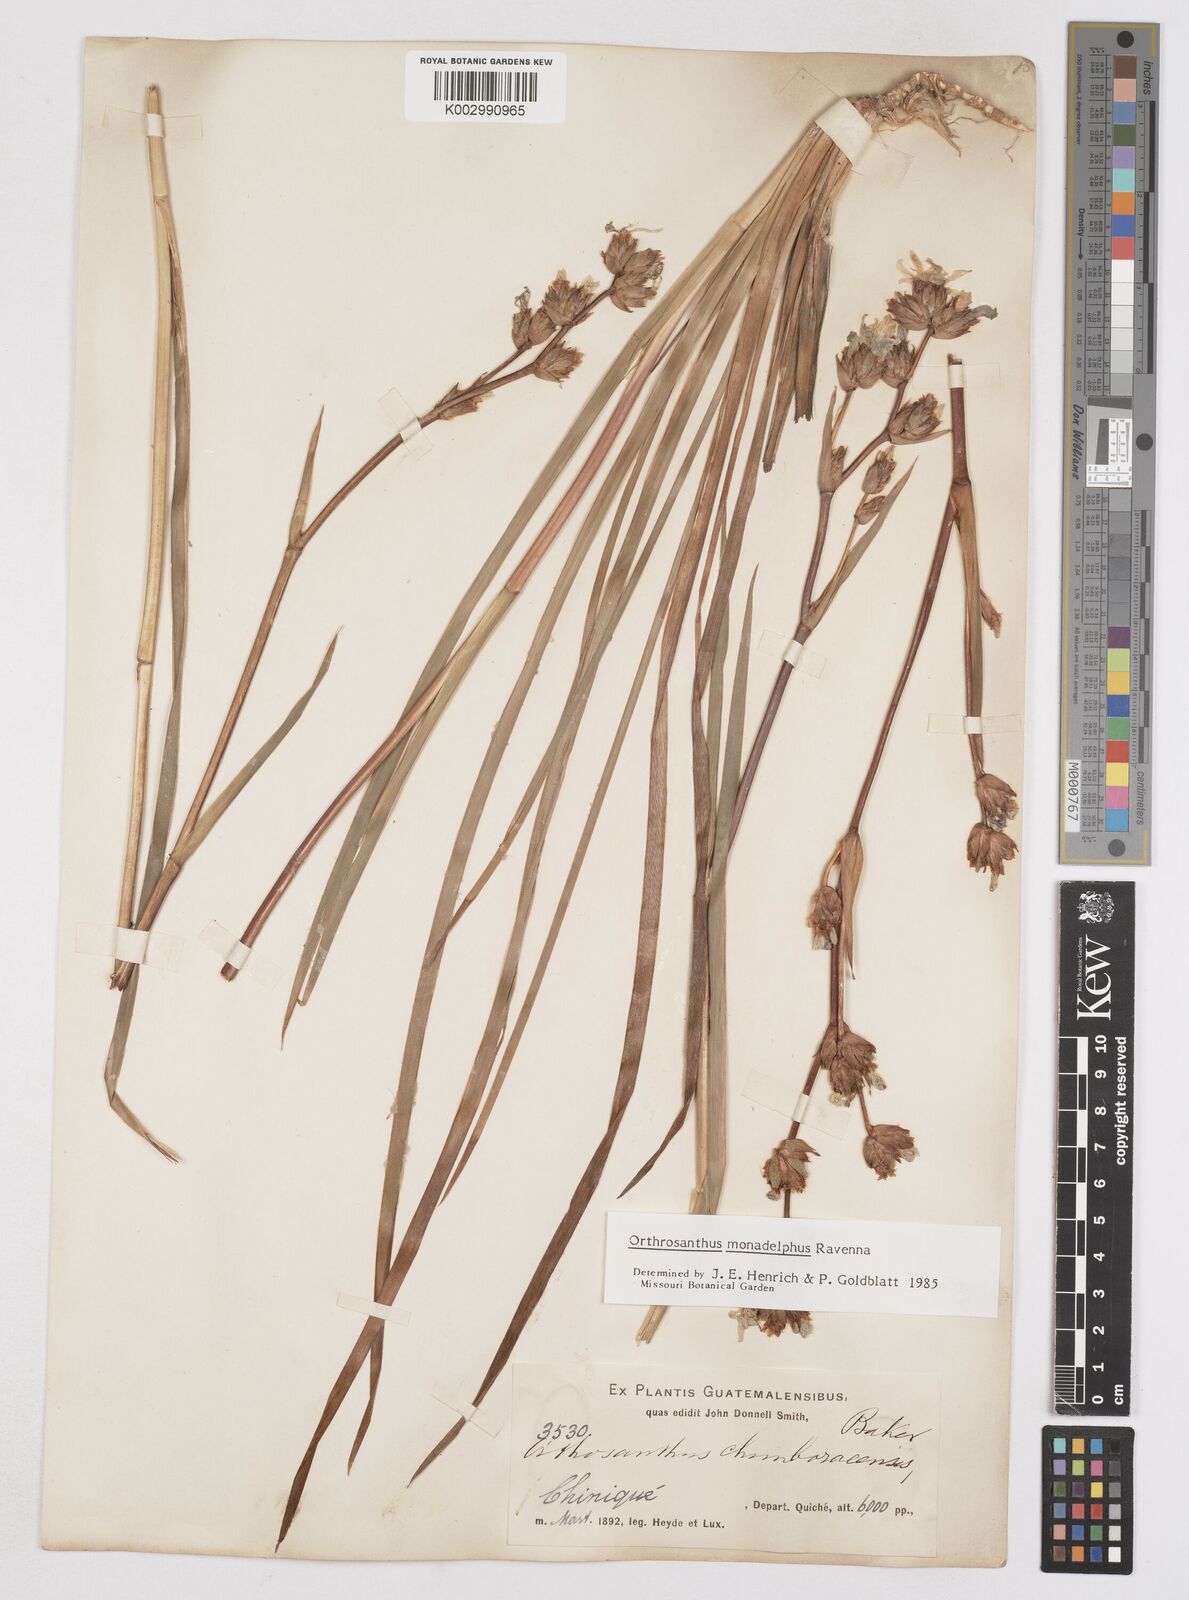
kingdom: Plantae
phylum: Tracheophyta
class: Liliopsida
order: Asparagales
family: Iridaceae
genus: Orthrosanthus
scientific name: Orthrosanthus monadelphus
